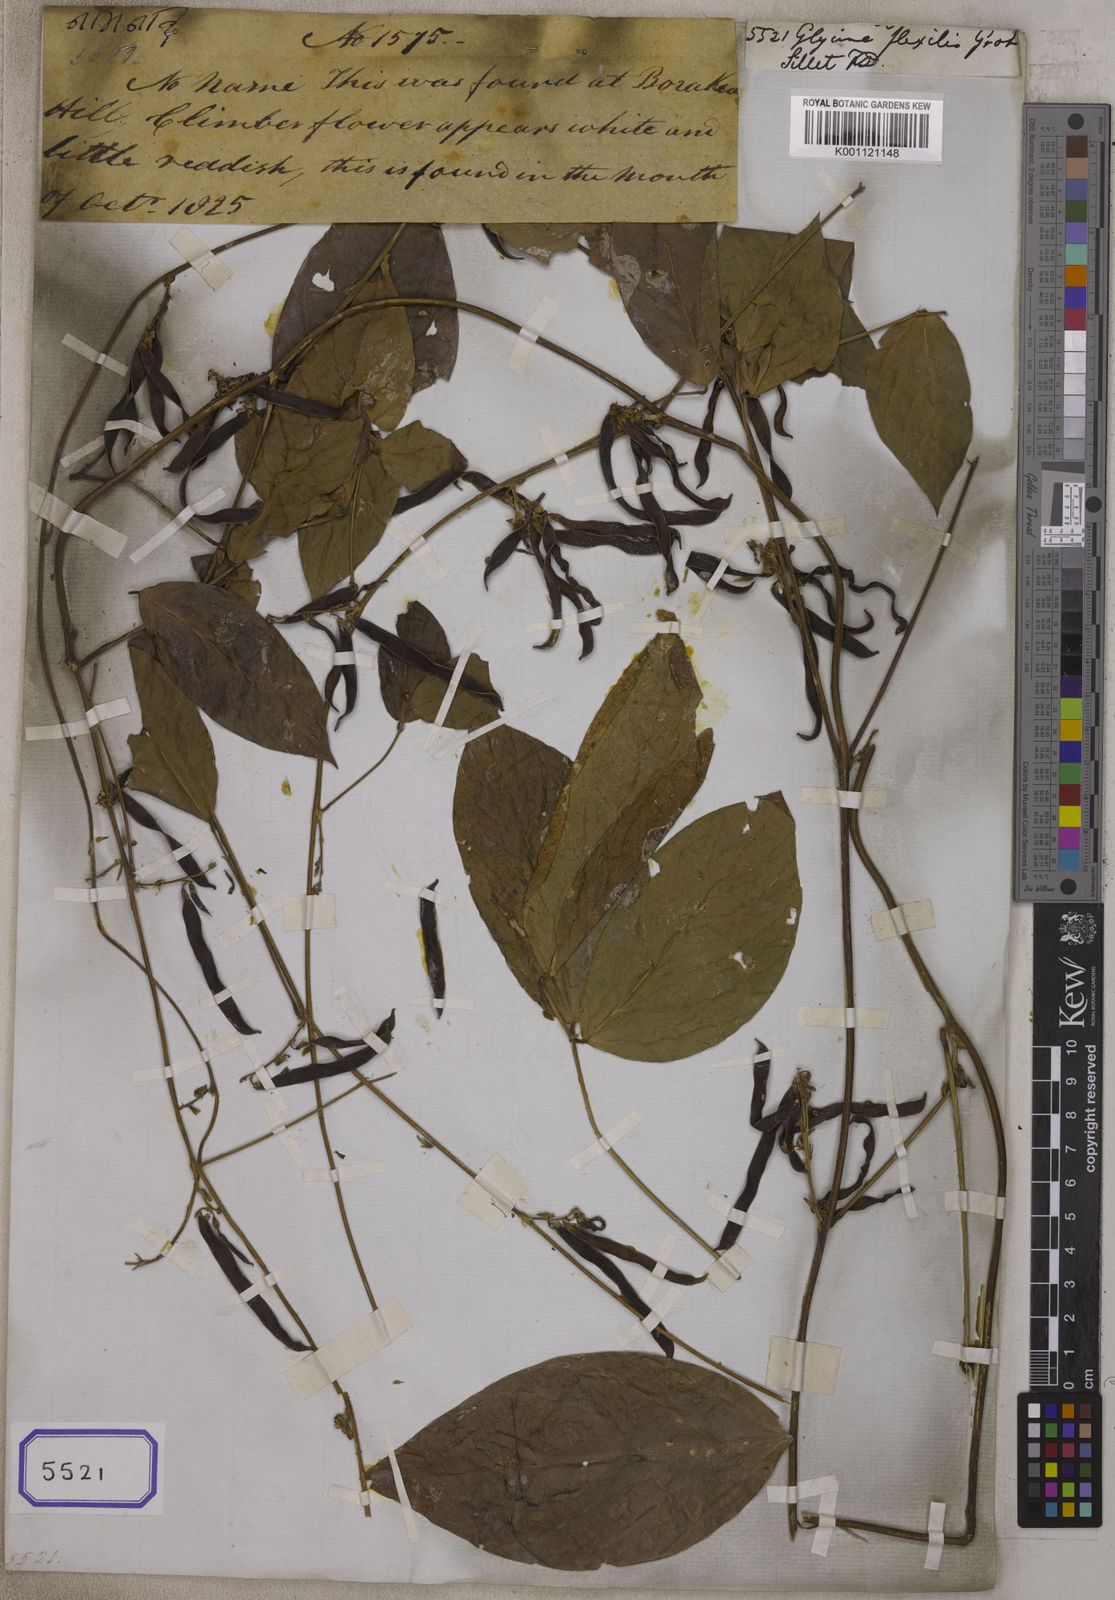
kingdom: Plantae
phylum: Tracheophyta
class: Magnoliopsida
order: Fabales
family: Fabaceae
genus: Teramnus
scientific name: Teramnus flexilis
